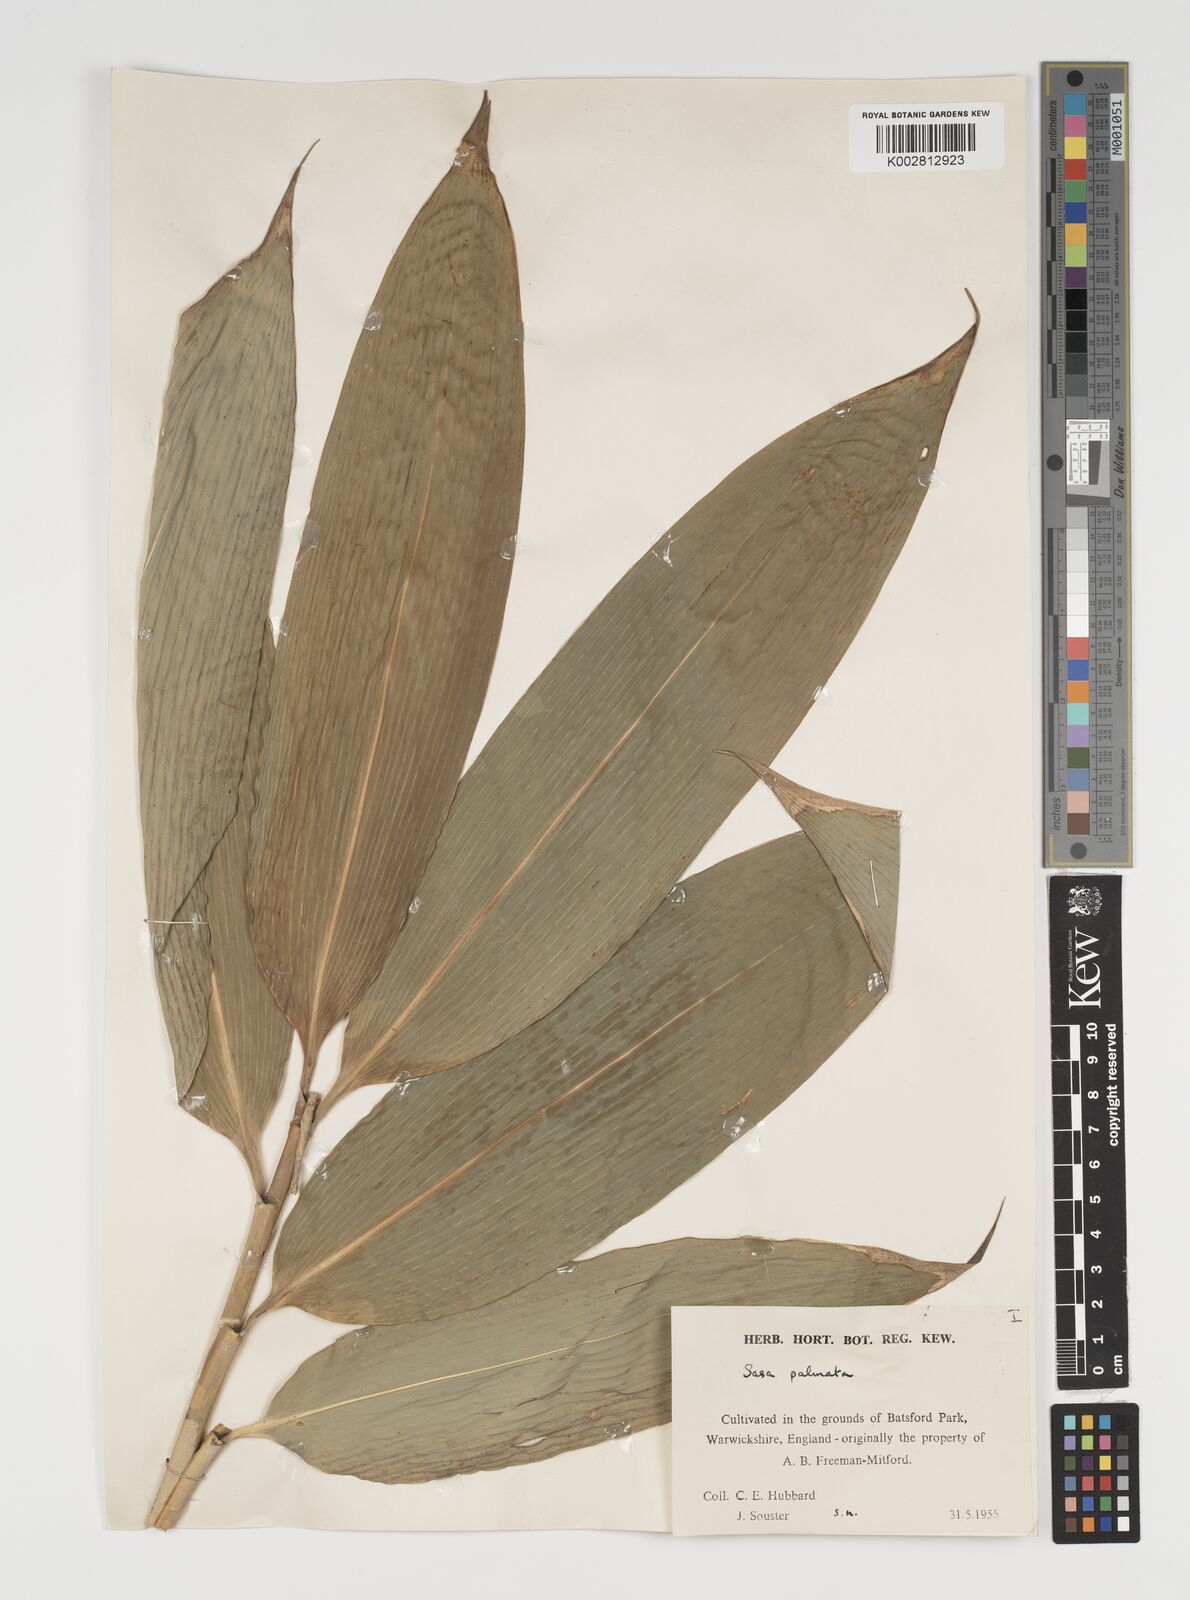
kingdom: Plantae
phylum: Tracheophyta
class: Liliopsida
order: Poales
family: Poaceae
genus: Sasa
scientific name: Sasa palmata
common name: Broad-leaved bamboo
